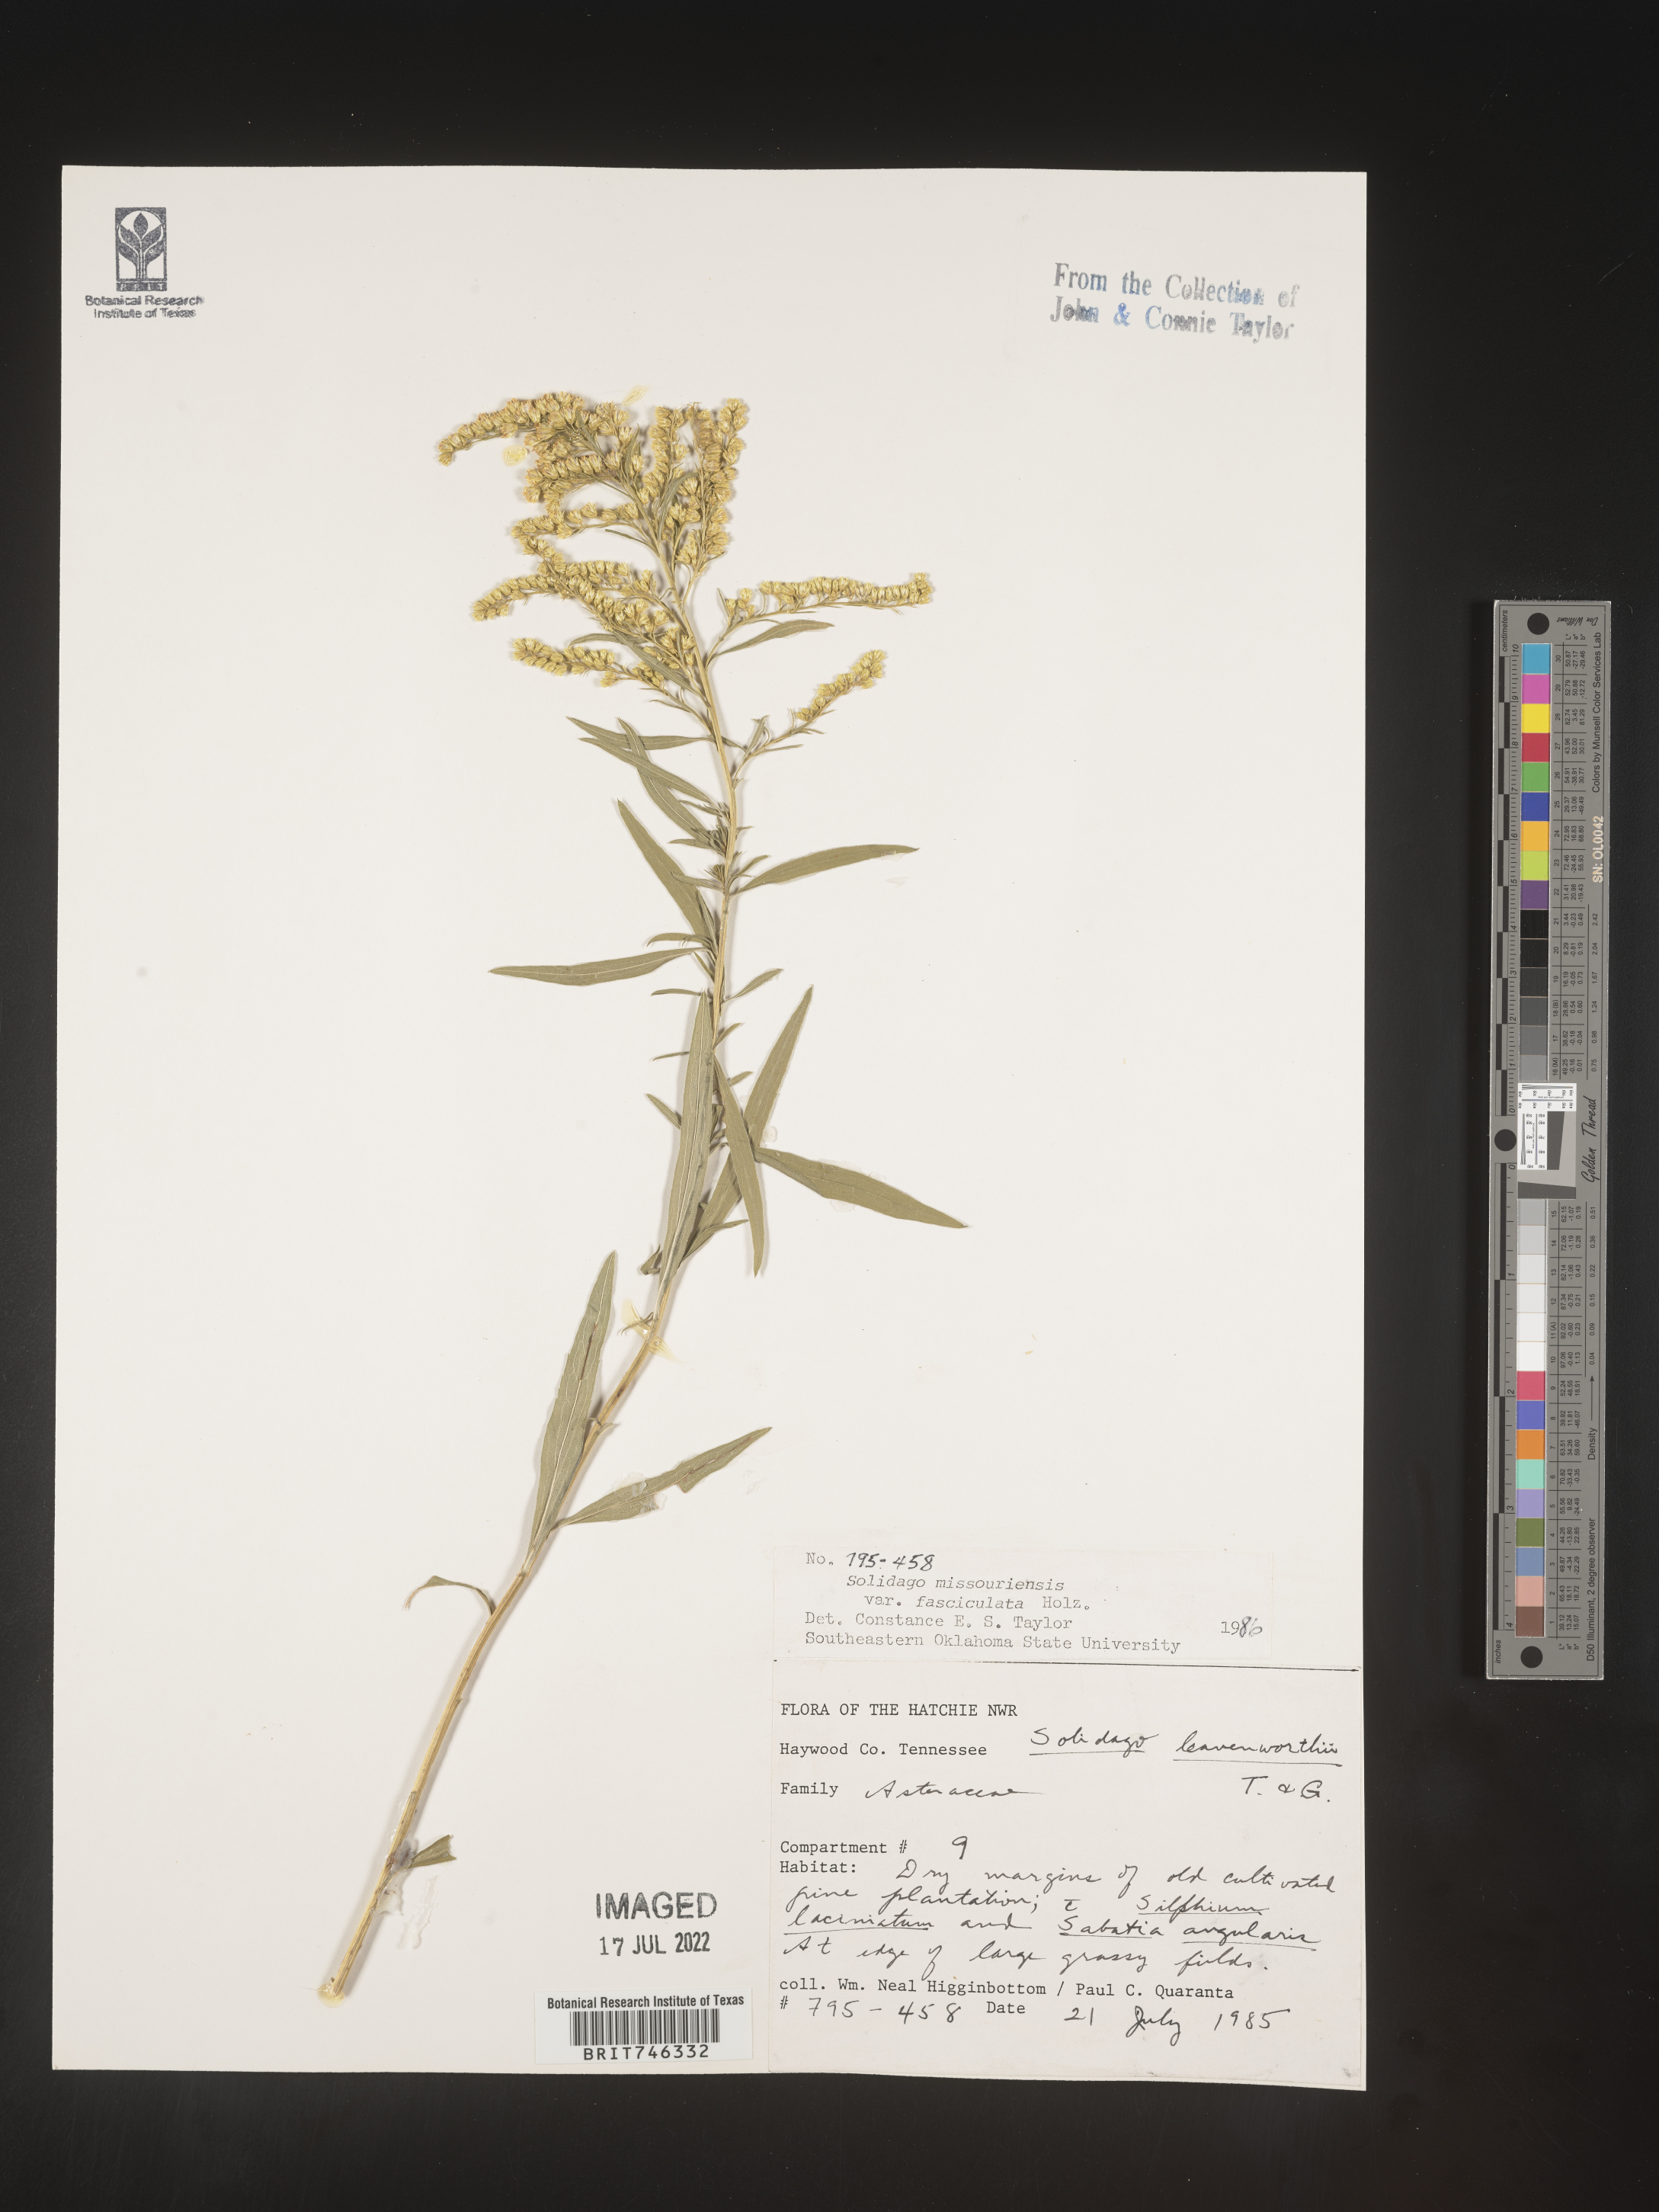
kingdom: Plantae
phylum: Tracheophyta
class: Magnoliopsida
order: Asterales
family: Asteraceae
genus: Solidago
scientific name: Solidago gattingeri
